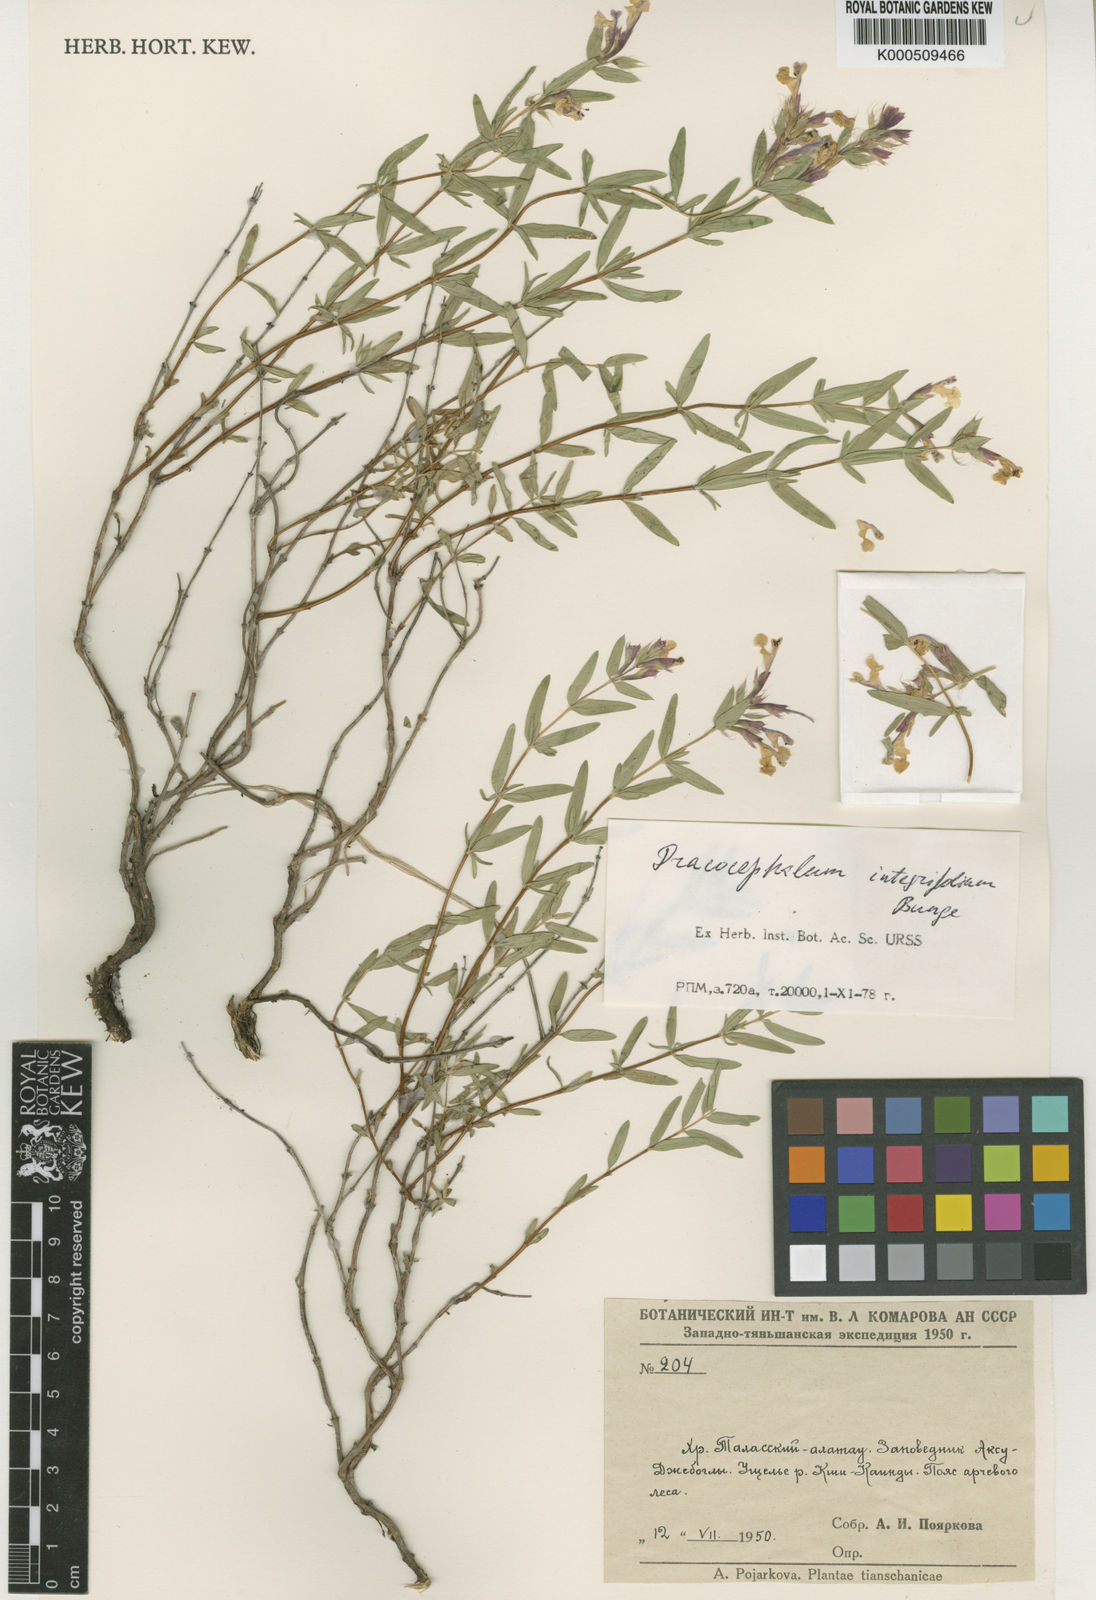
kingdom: Plantae
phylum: Tracheophyta
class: Magnoliopsida
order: Lamiales
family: Lamiaceae
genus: Dracocephalum
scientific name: Dracocephalum integrifolium
